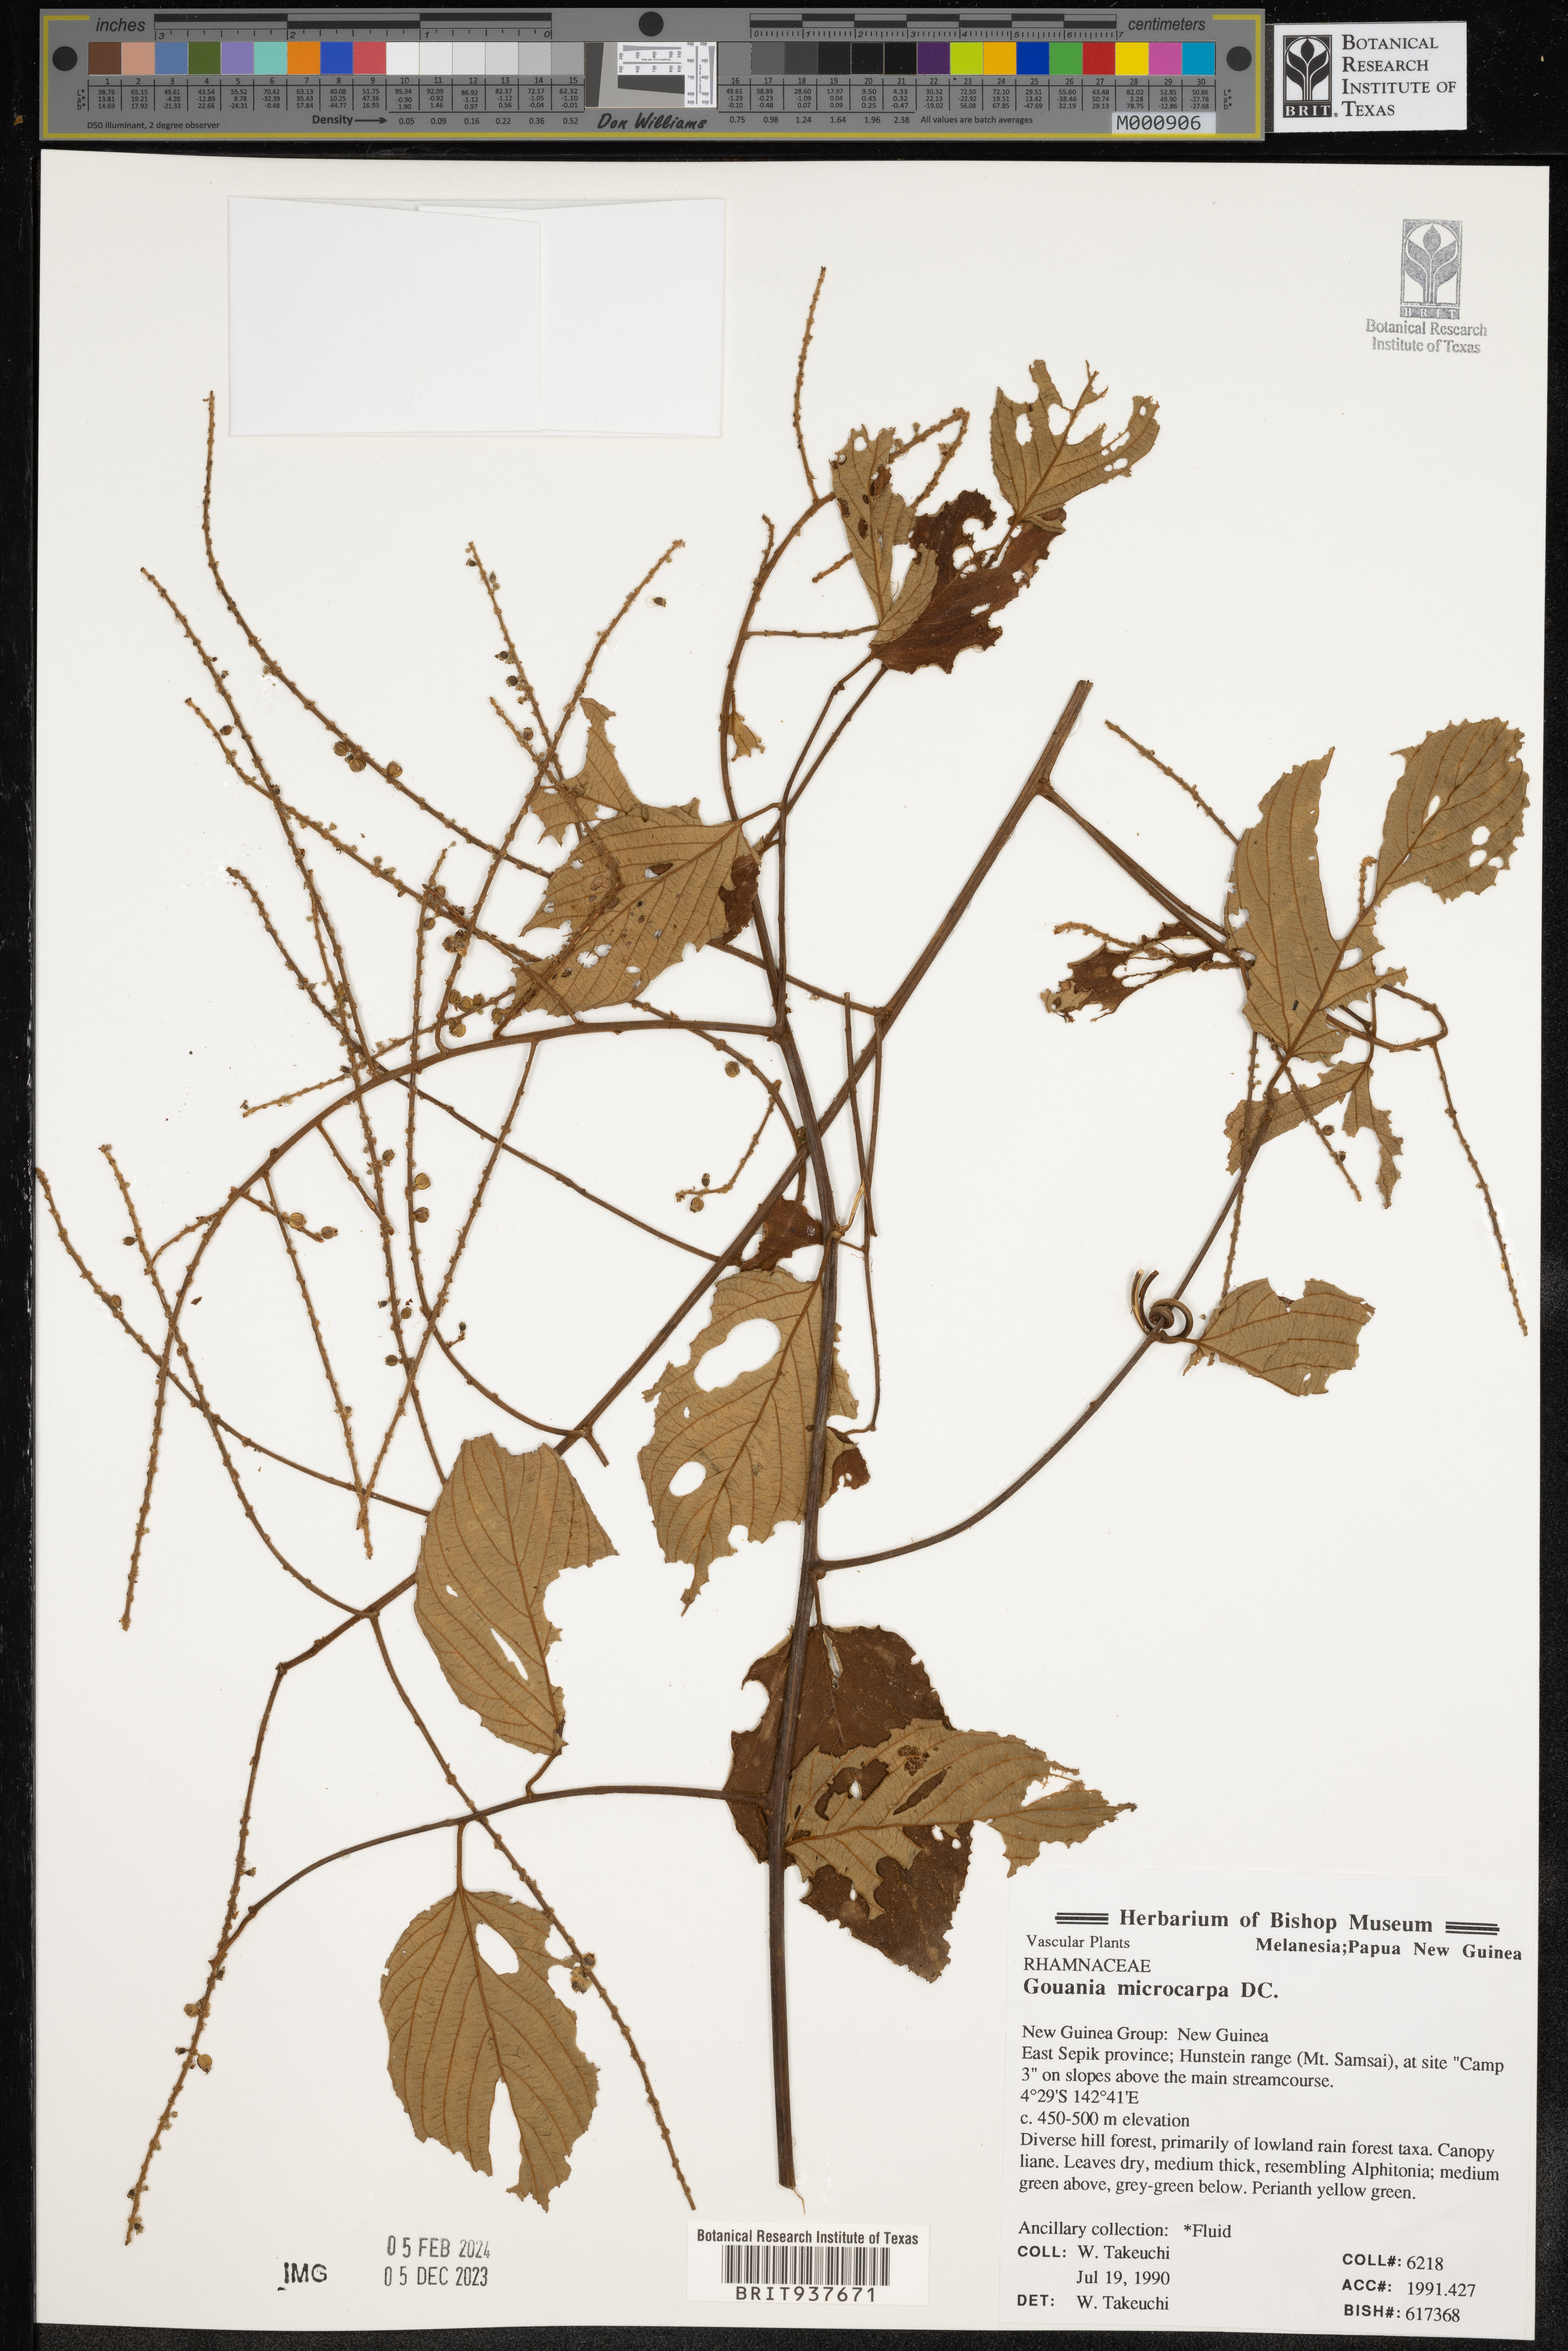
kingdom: Plantae
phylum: Tracheophyta
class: Magnoliopsida
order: Rosales
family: Rhamnaceae
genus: Gouania
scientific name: Gouania
